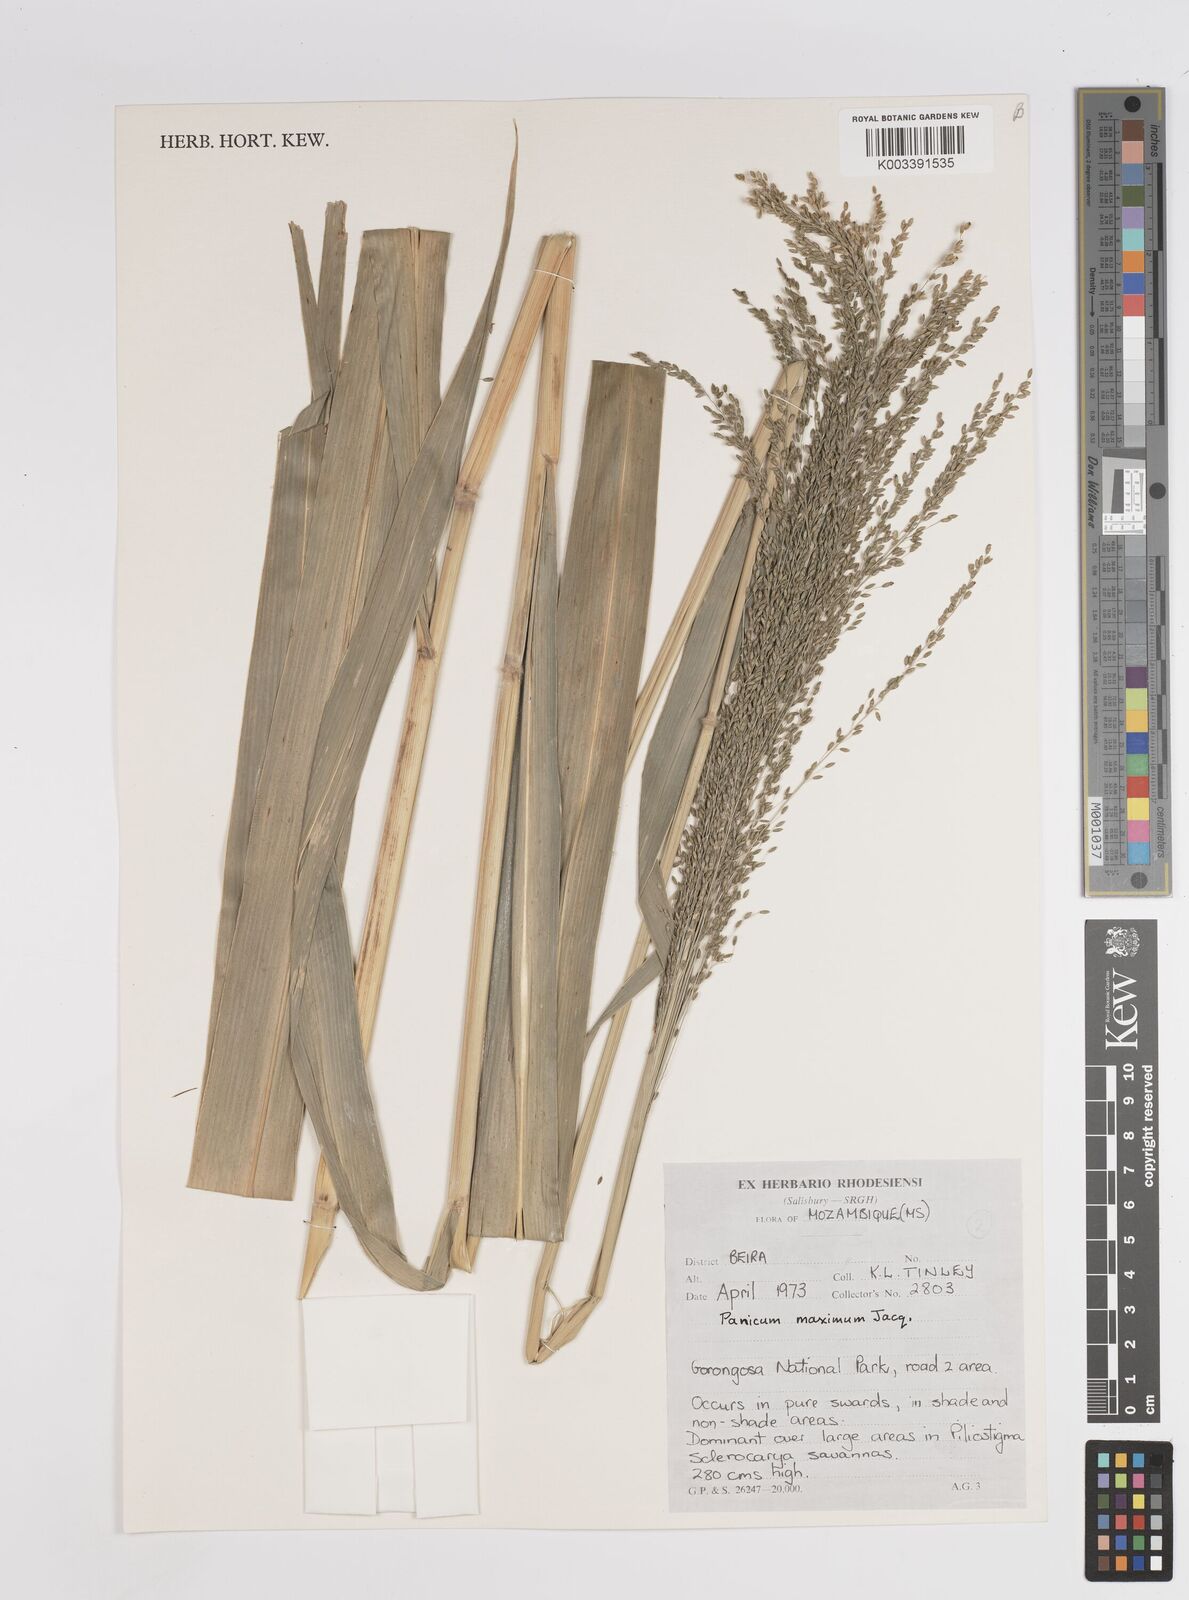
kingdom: Plantae
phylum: Tracheophyta
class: Liliopsida
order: Poales
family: Poaceae
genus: Megathyrsus
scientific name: Megathyrsus maximus
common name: Guineagrass
